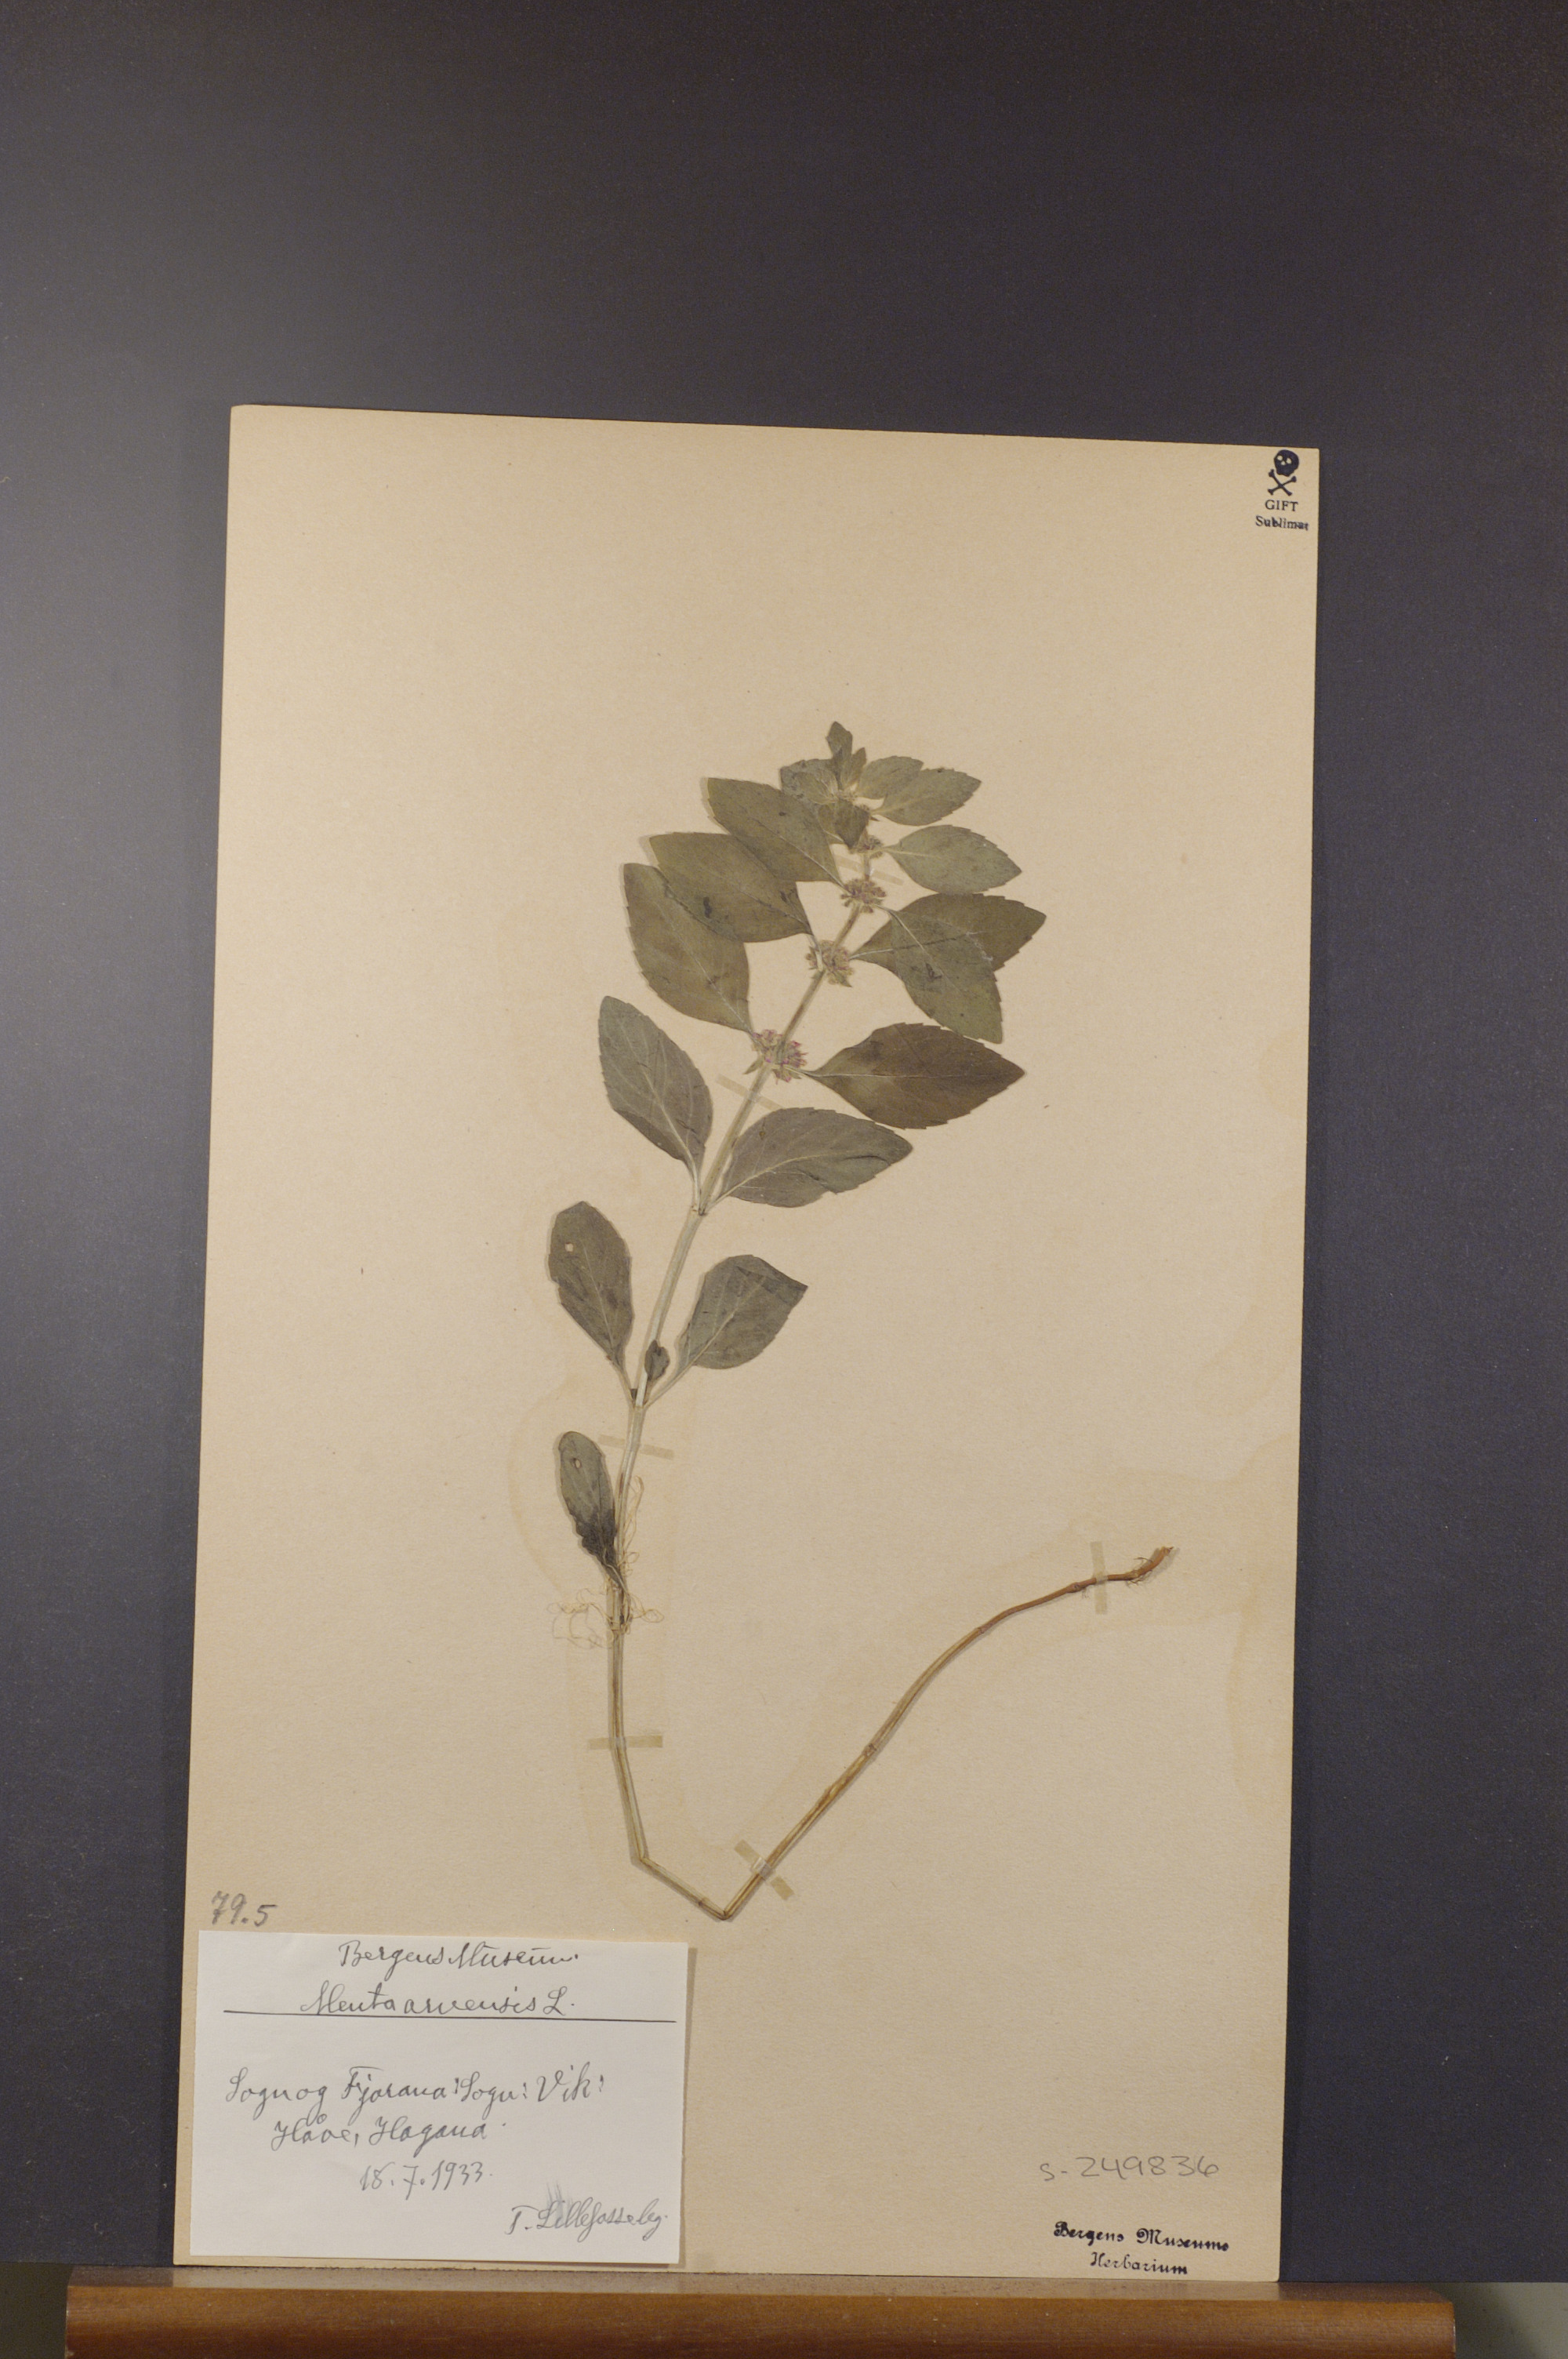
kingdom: Plantae
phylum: Tracheophyta
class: Magnoliopsida
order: Lamiales
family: Lamiaceae
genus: Mentha
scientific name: Mentha arvensis
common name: Corn mint
